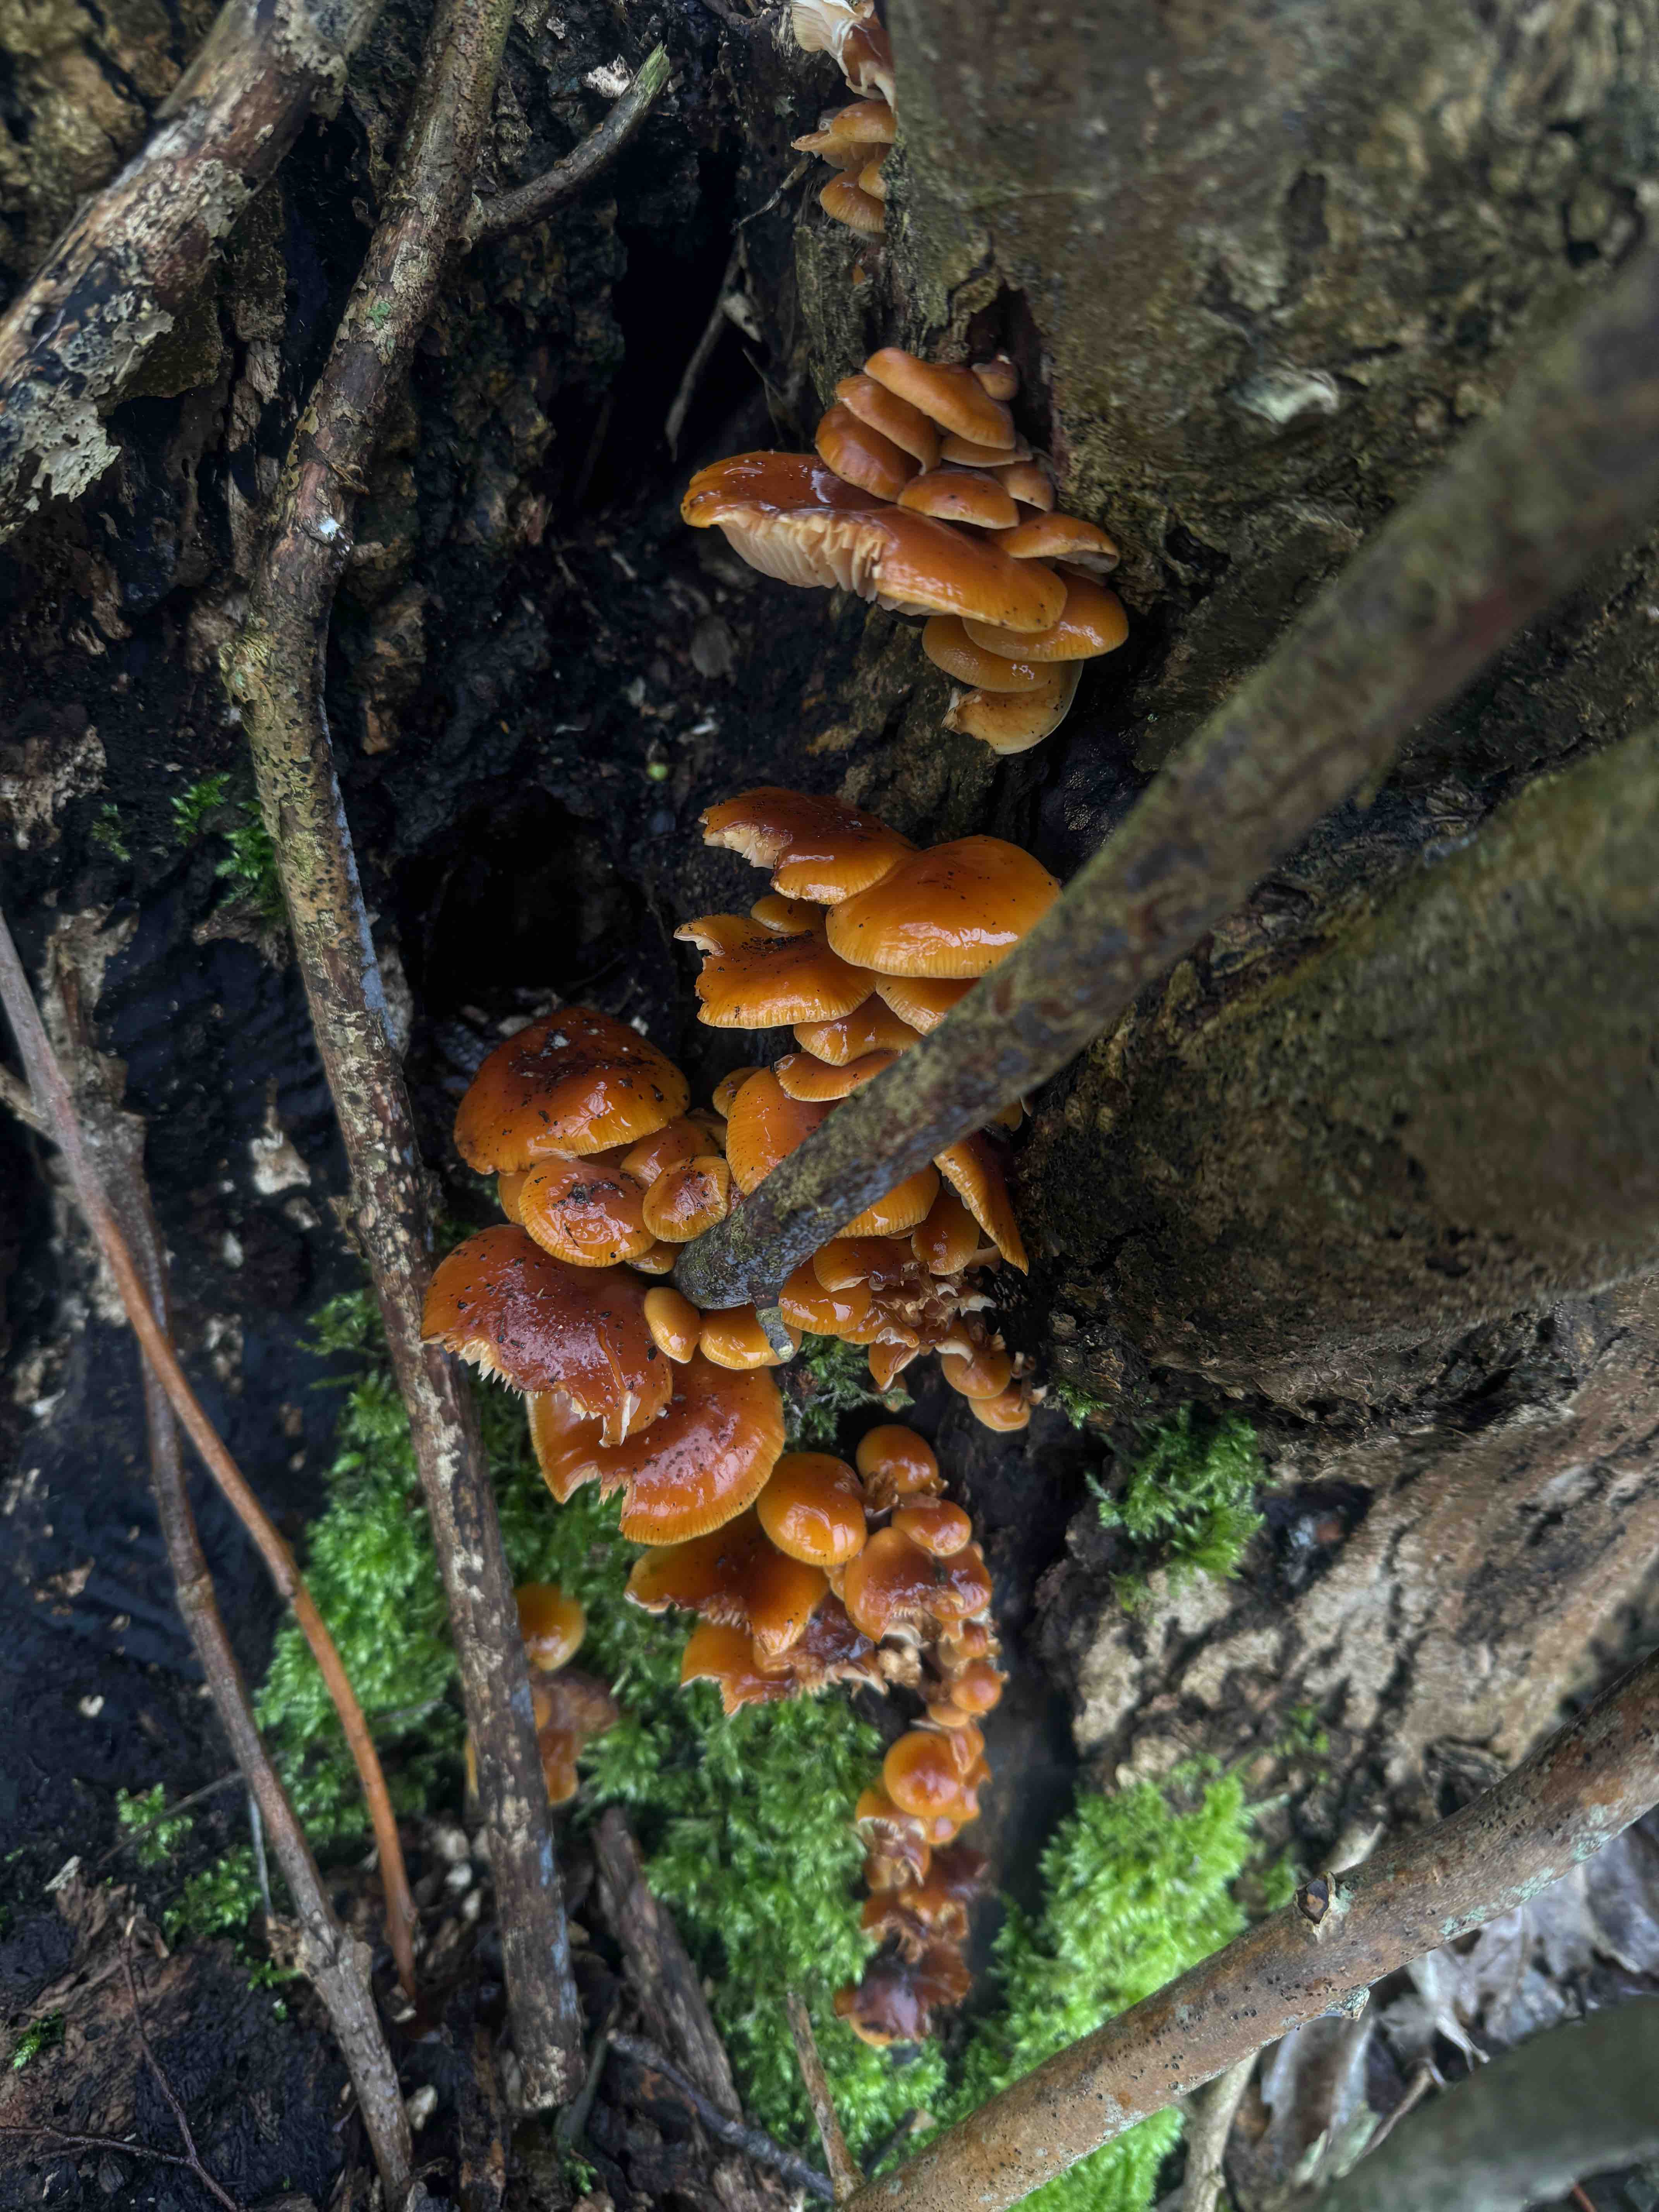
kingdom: Fungi
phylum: Basidiomycota
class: Agaricomycetes
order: Agaricales
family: Physalacriaceae
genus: Flammulina
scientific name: Flammulina velutipes
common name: gul fløjlsfod
